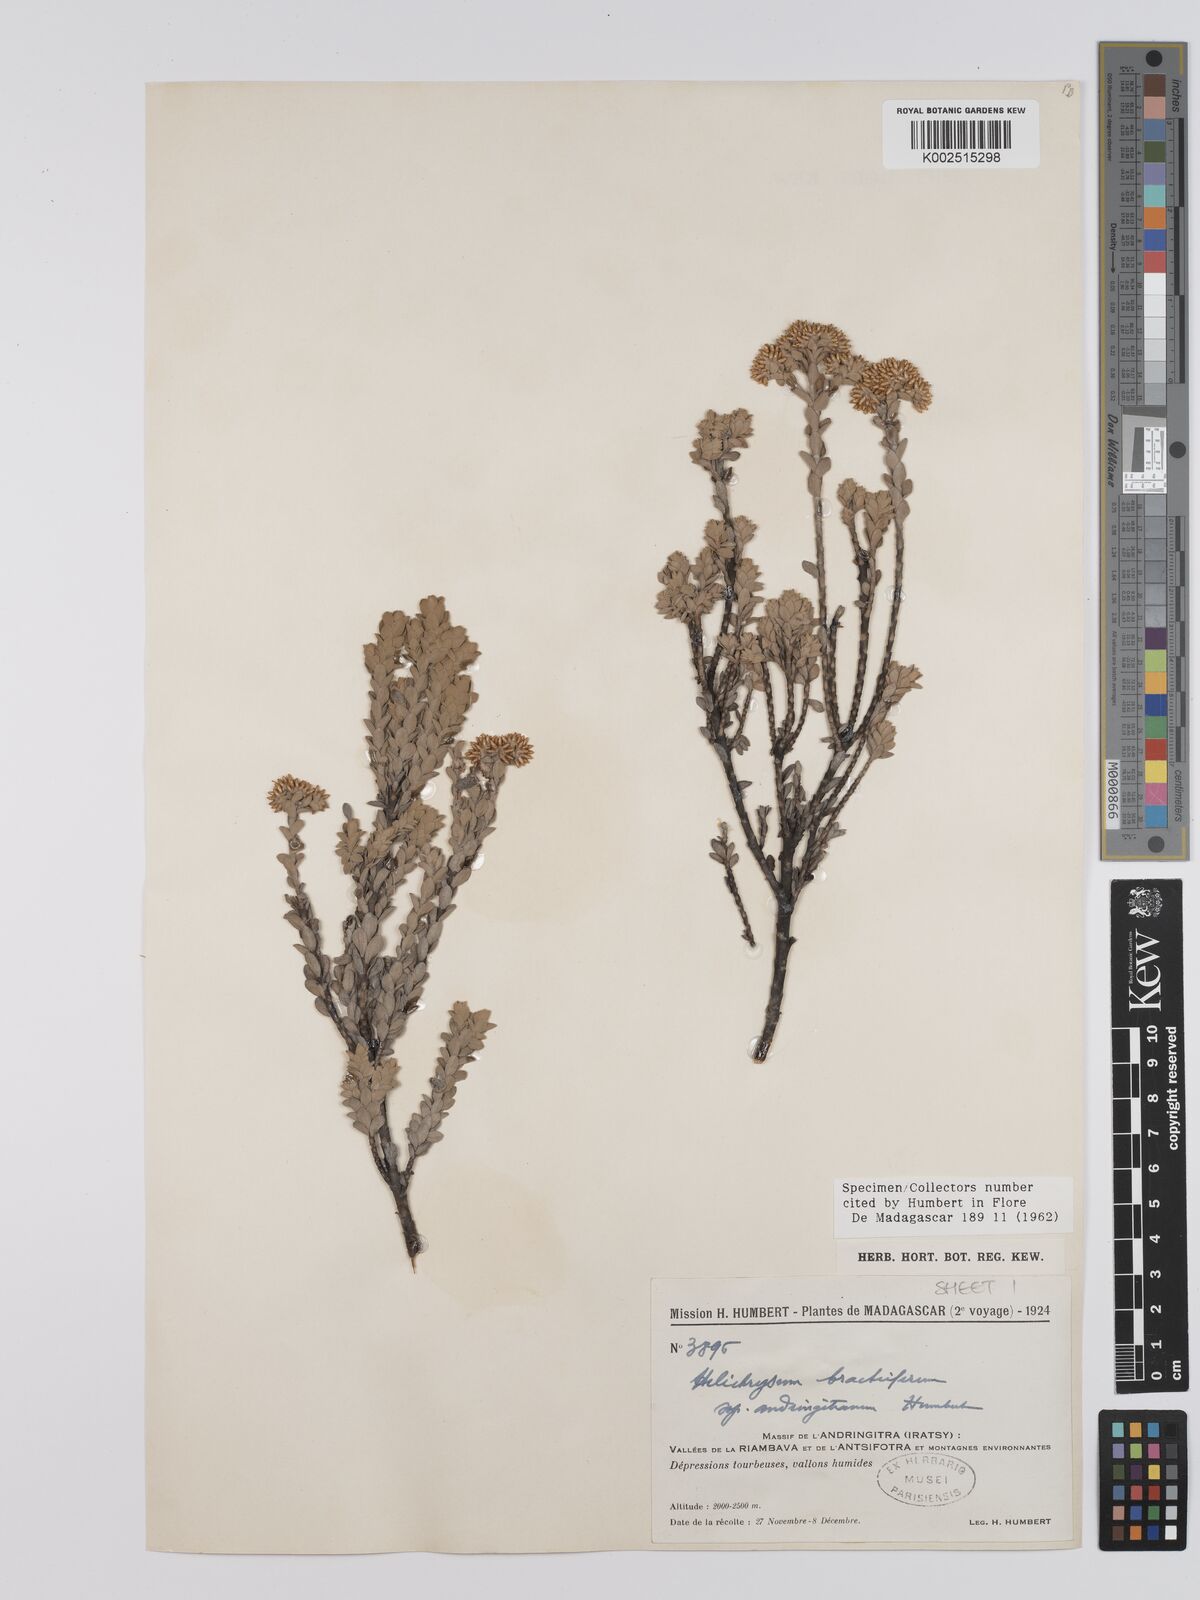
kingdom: Plantae
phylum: Tracheophyta
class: Magnoliopsida
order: Asterales
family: Asteraceae
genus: Helichrysum
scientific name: Helichrysum bracteiferum
